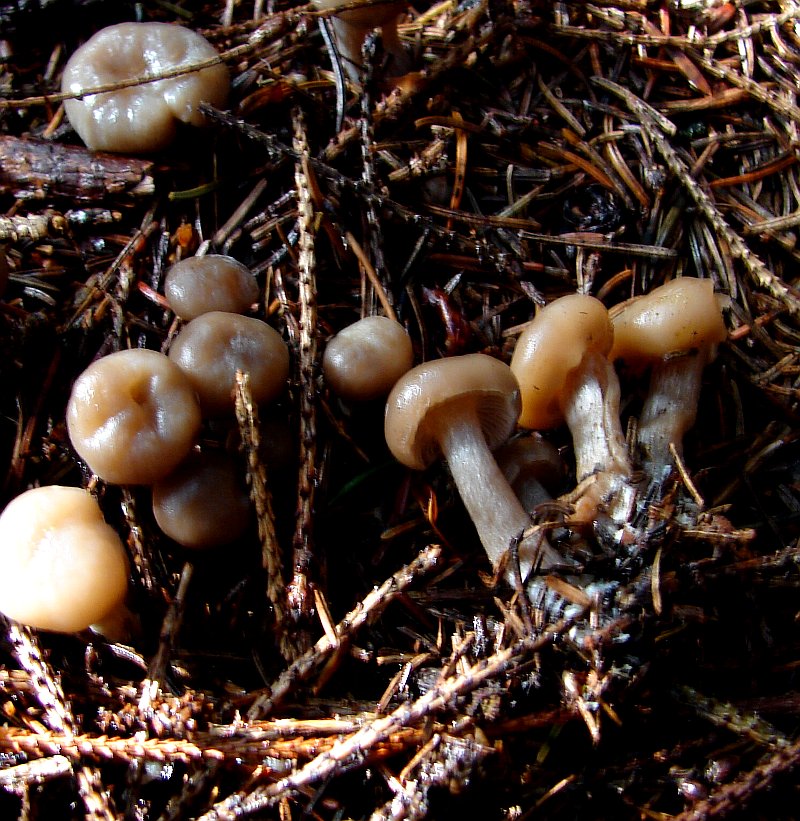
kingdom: Fungi
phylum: Basidiomycota
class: Agaricomycetes
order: Agaricales
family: Tricholomataceae
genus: Clitocybe
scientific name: Clitocybe vibecina
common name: randstribet tragthat
